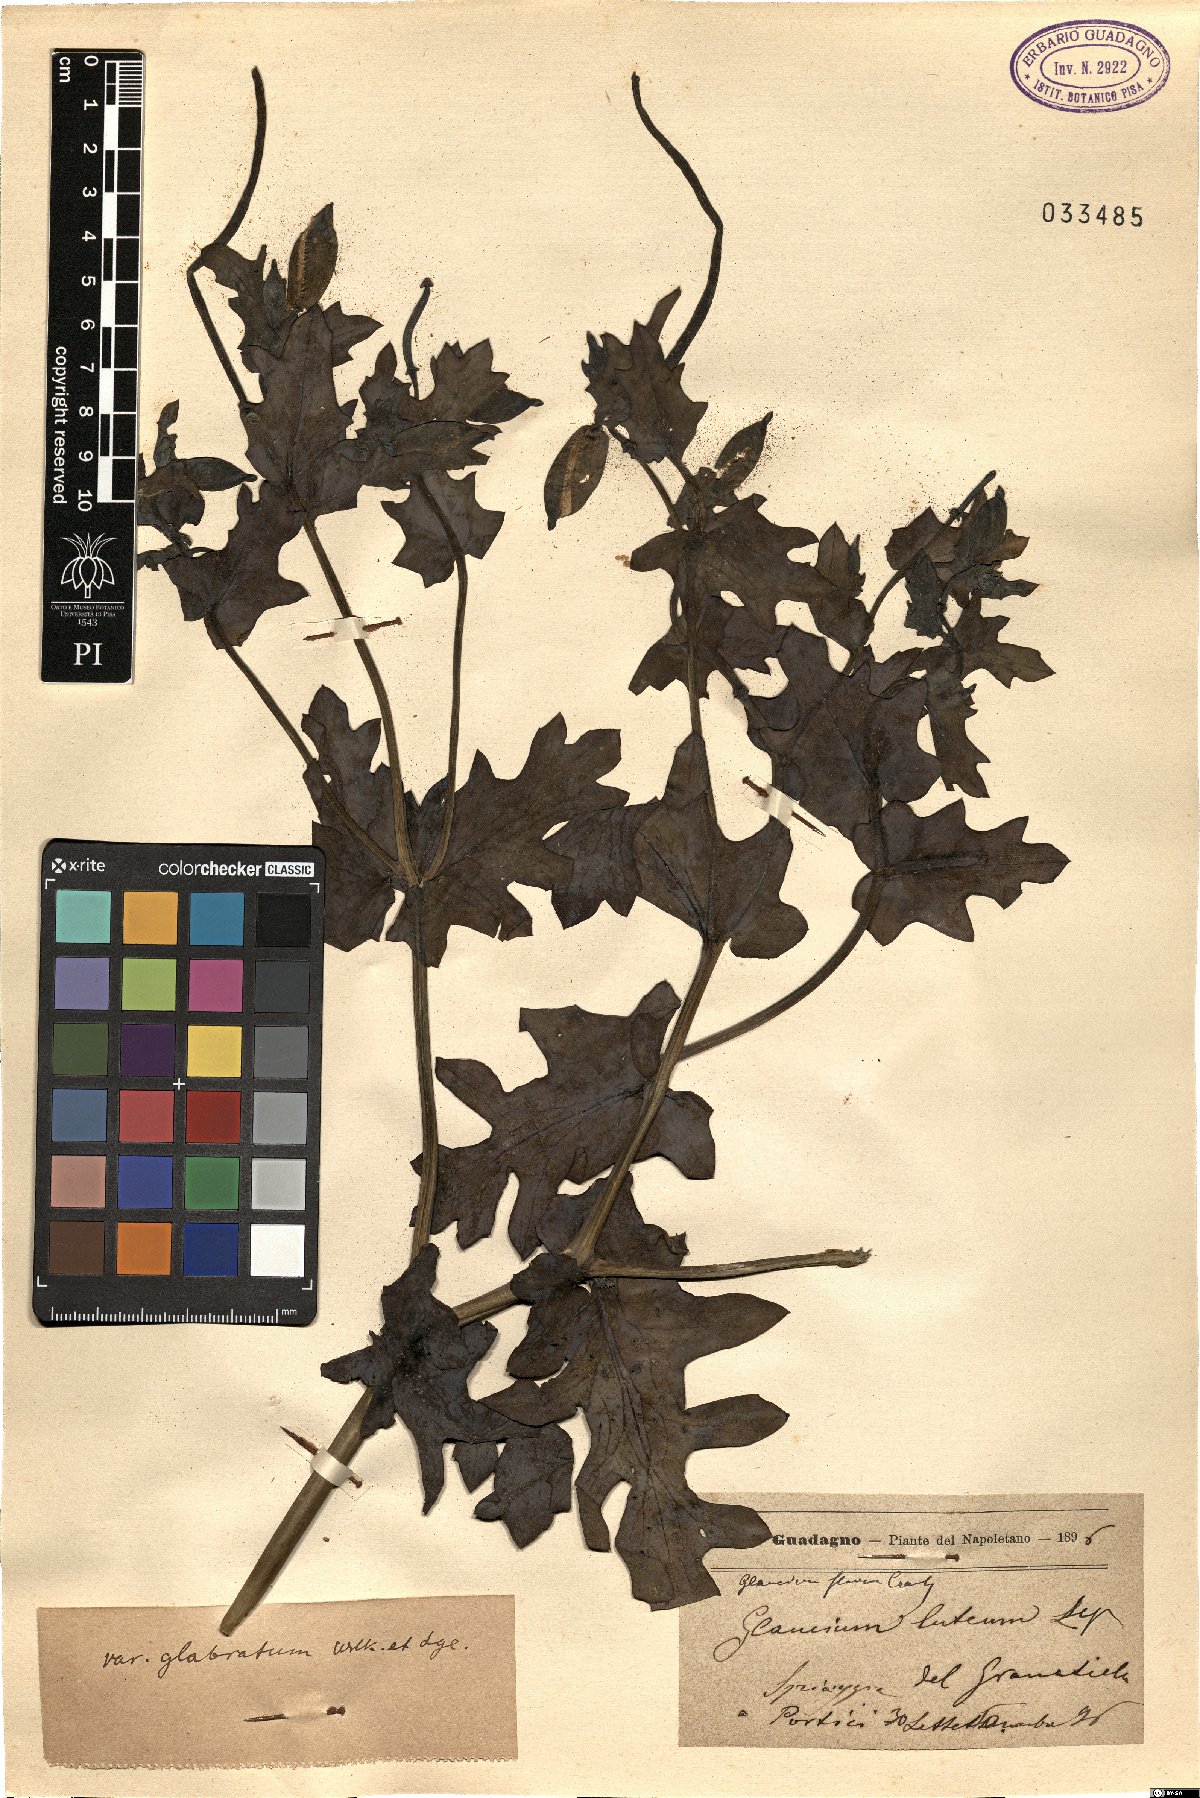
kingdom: Plantae
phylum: Tracheophyta
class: Magnoliopsida
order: Ranunculales
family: Papaveraceae
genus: Glaucium
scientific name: Glaucium flavum
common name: Yellow horned-poppy
